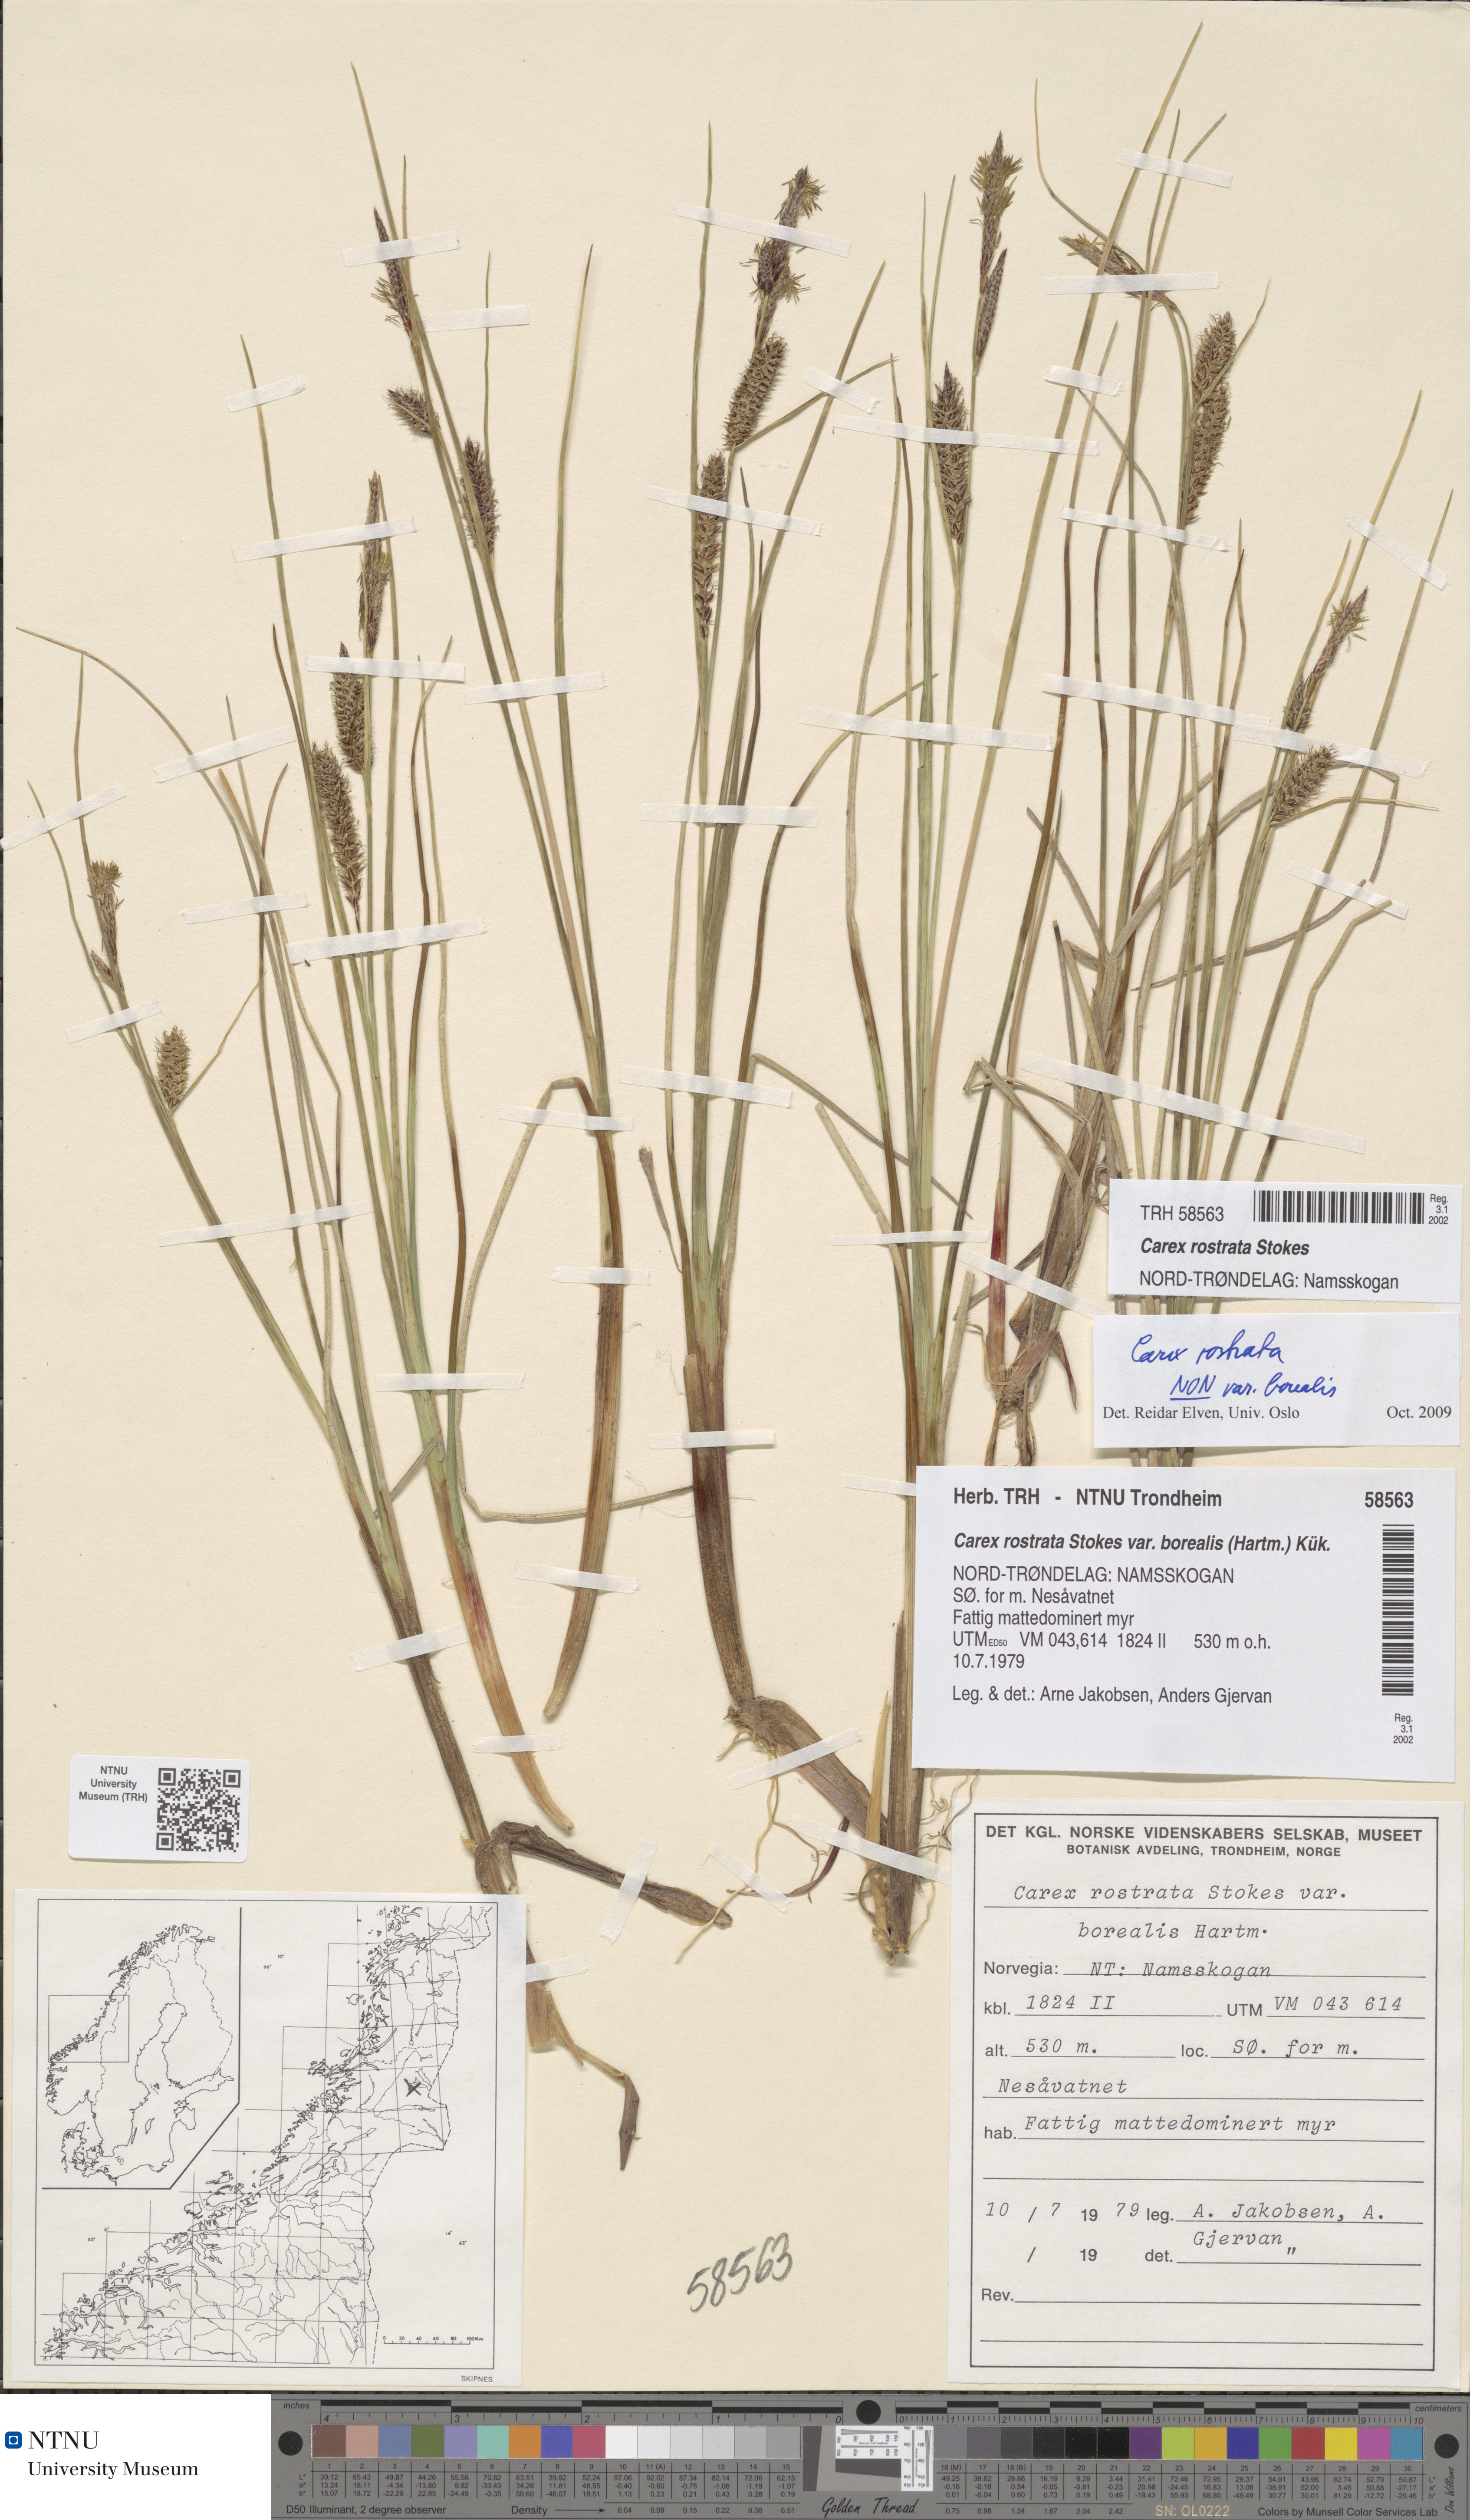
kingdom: Plantae
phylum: Tracheophyta
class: Liliopsida
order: Poales
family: Cyperaceae
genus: Carex
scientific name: Carex rostrata
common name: Bottle sedge
